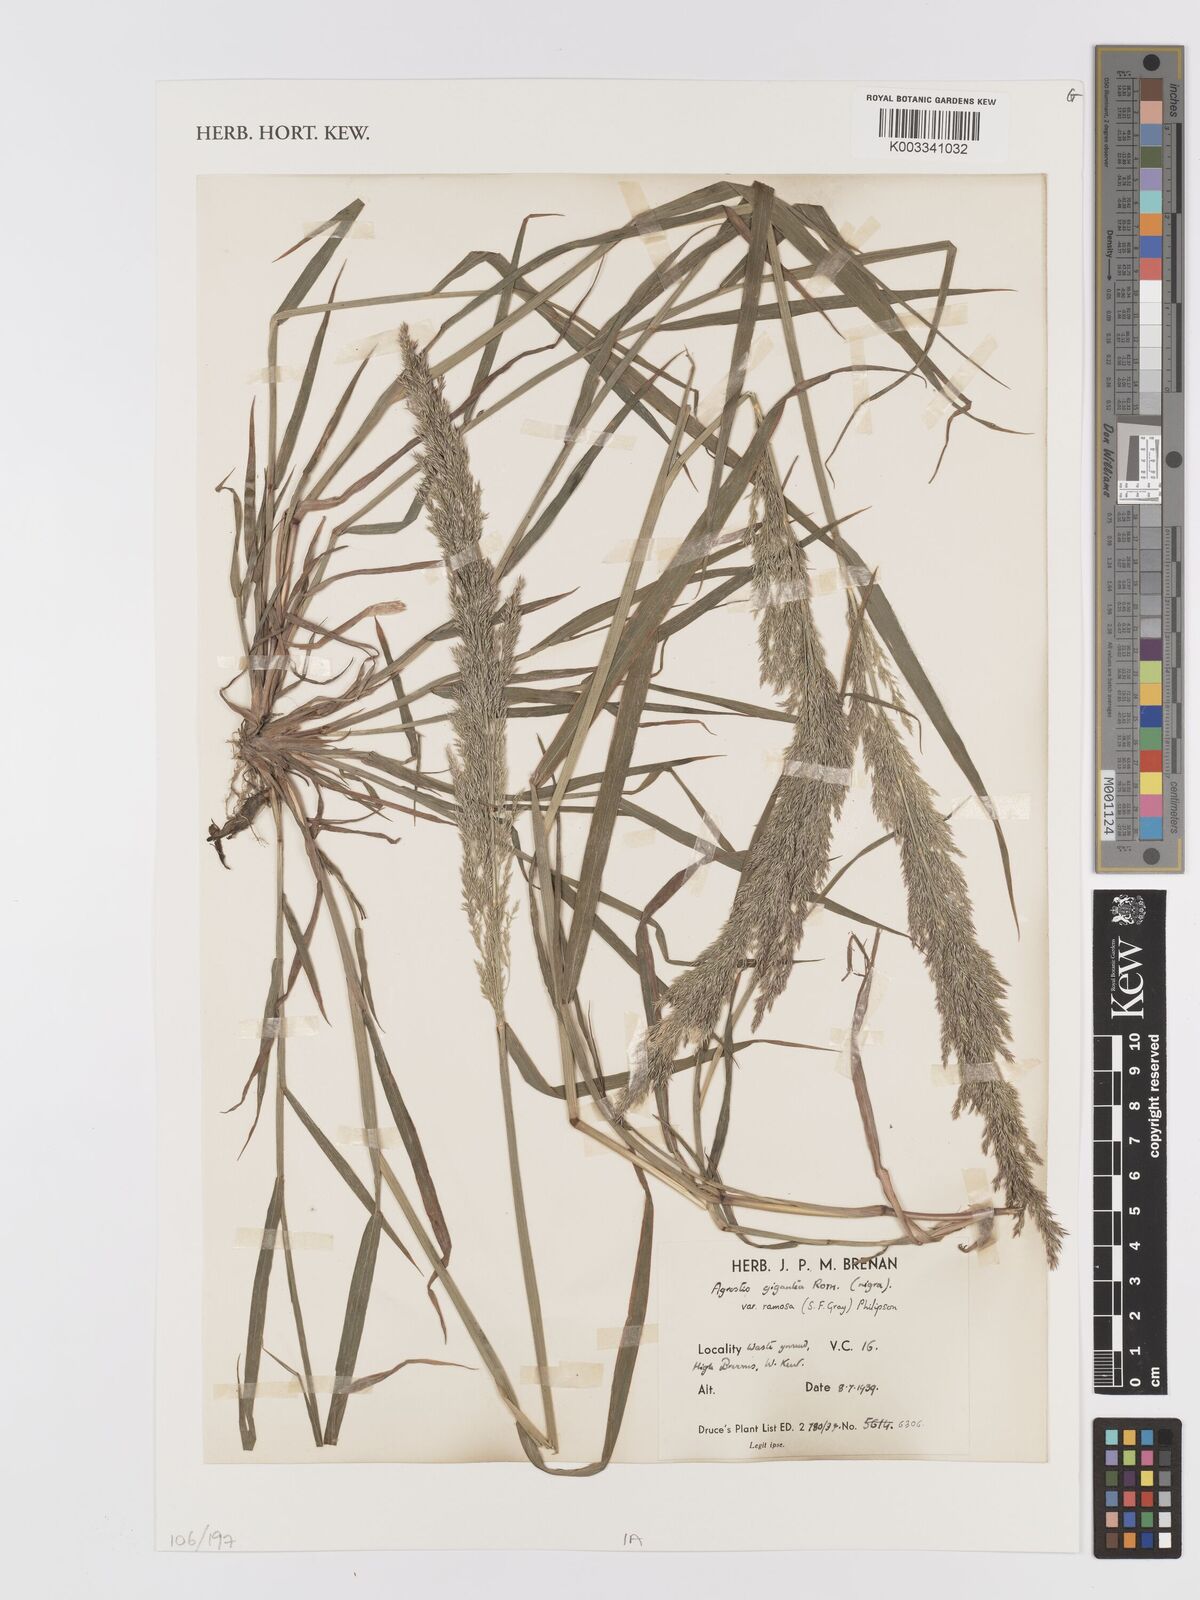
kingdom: Plantae
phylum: Tracheophyta
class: Liliopsida
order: Poales
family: Poaceae
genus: Agrostis
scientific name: Agrostis gigantea
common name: Black bent
